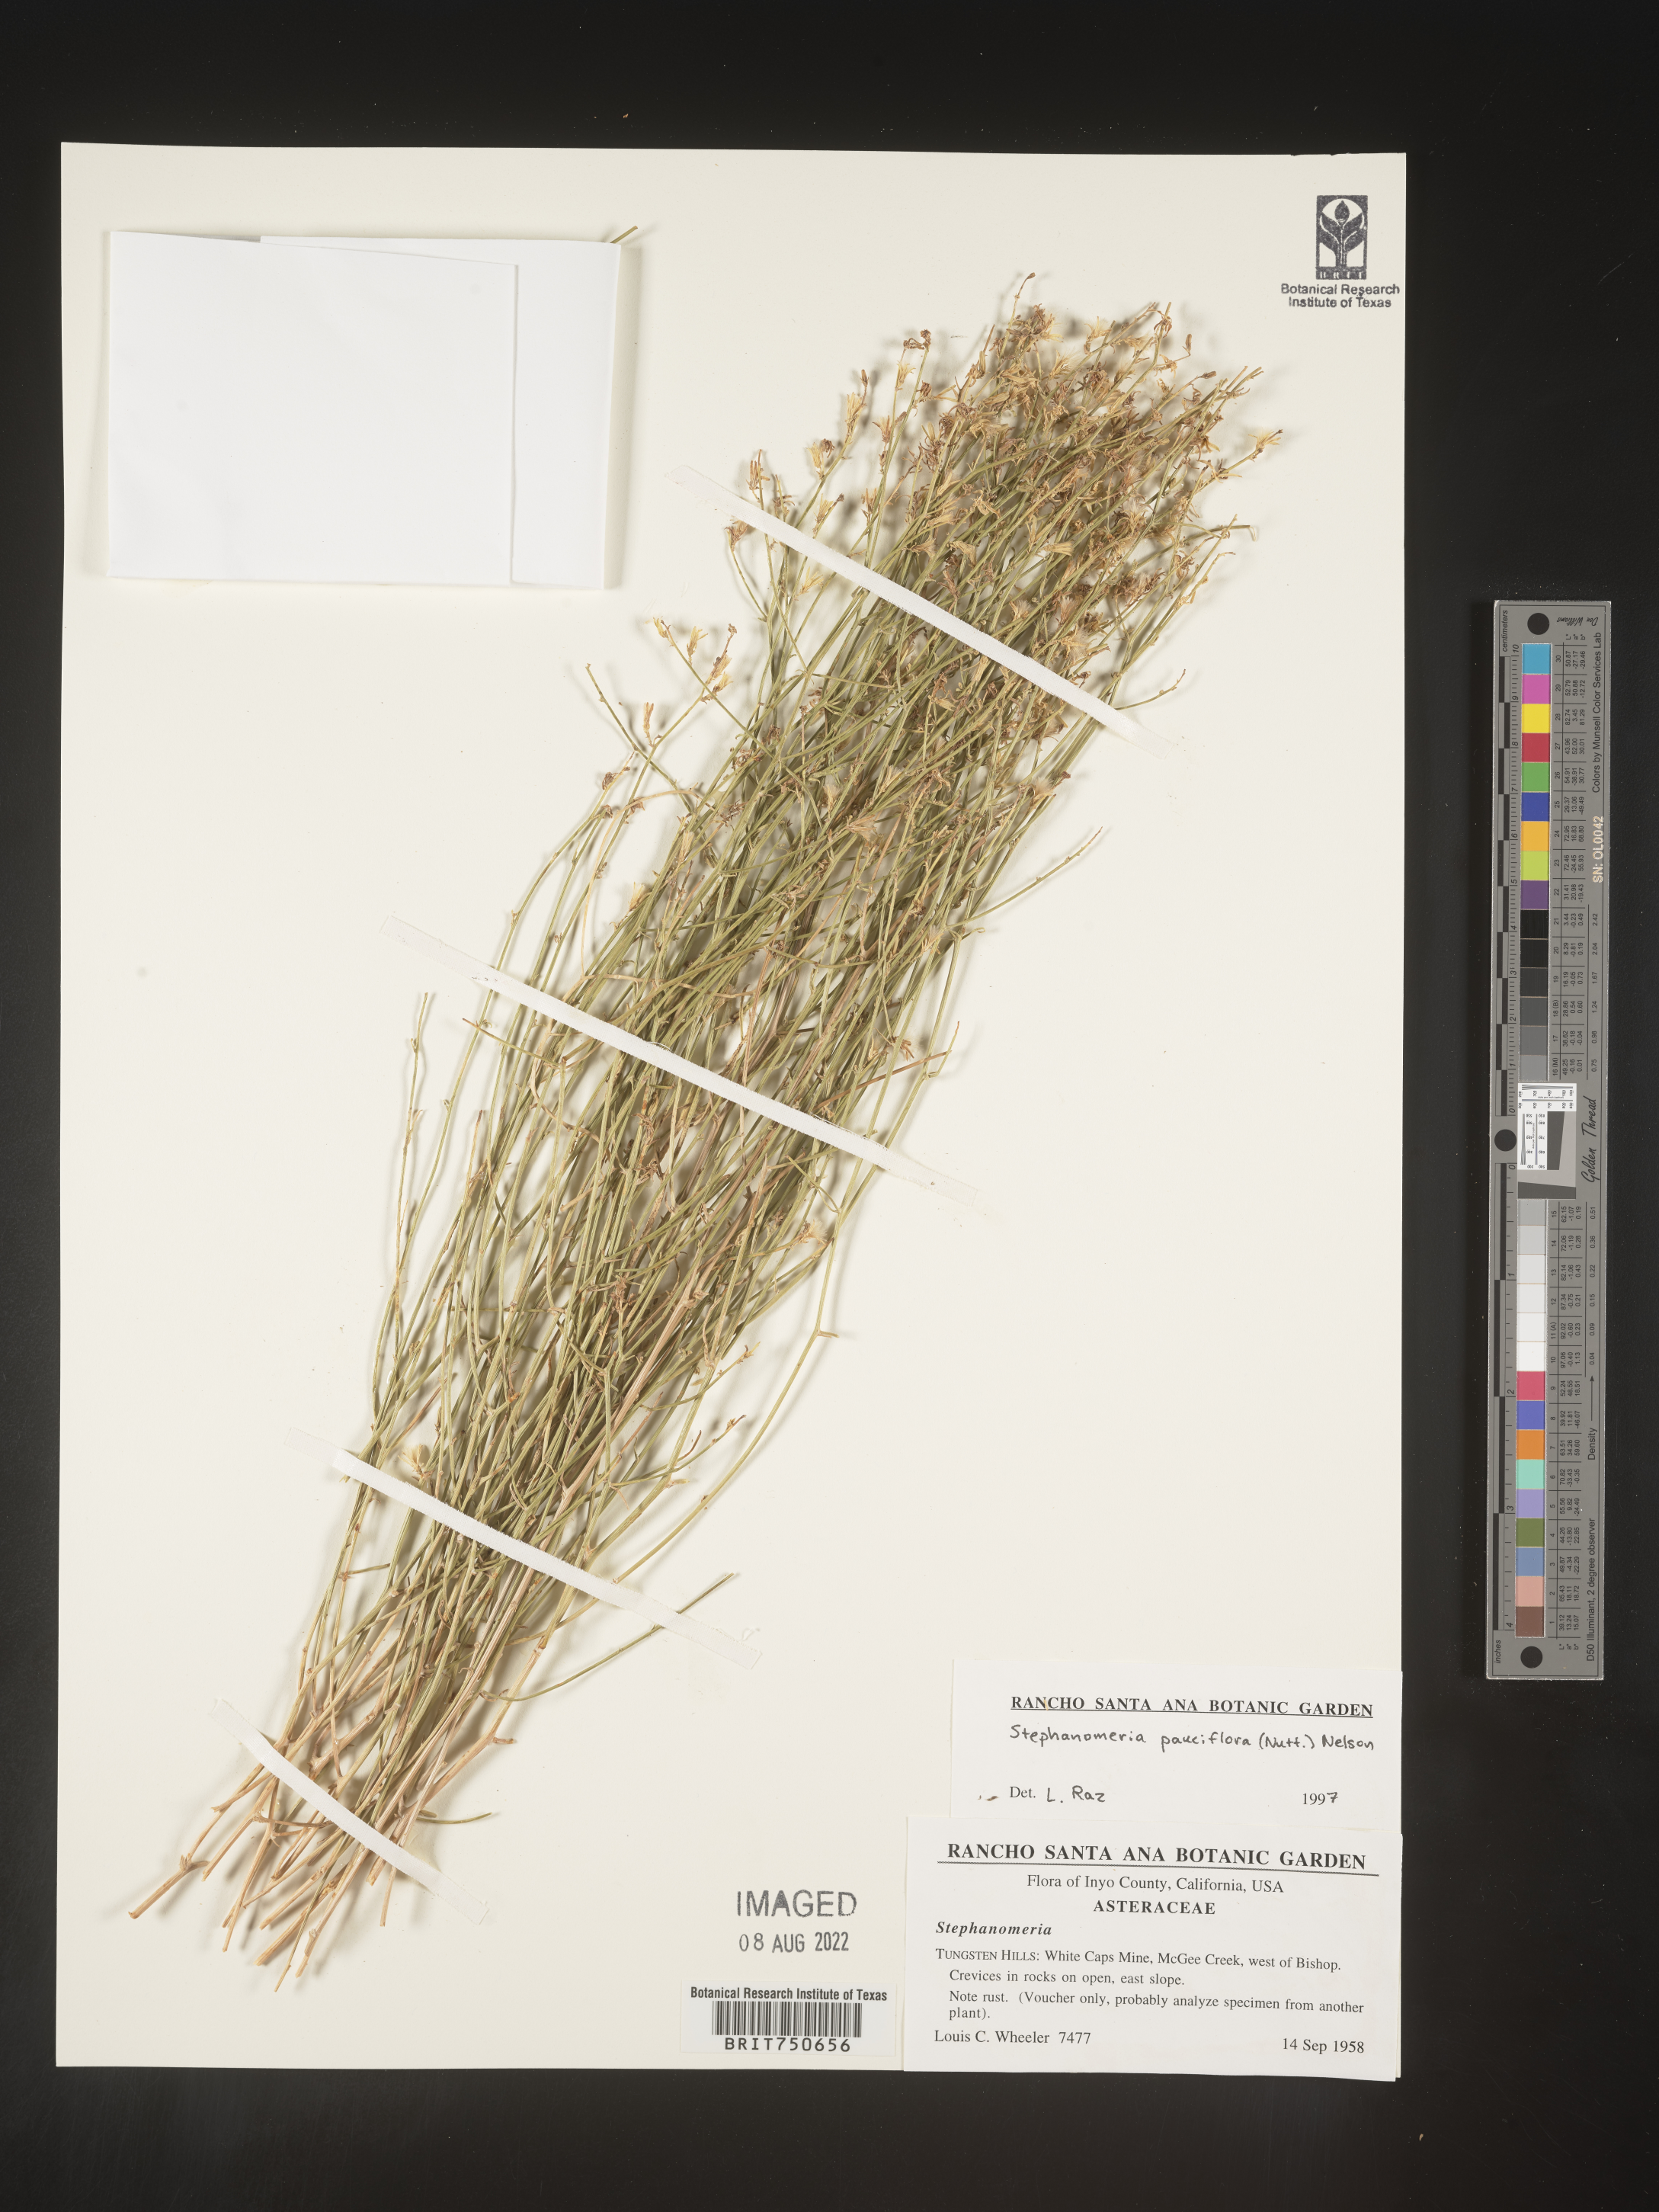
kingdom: Plantae
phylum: Tracheophyta
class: Magnoliopsida
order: Asterales
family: Asteraceae
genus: Stephanomeria
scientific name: Stephanomeria pauciflora
